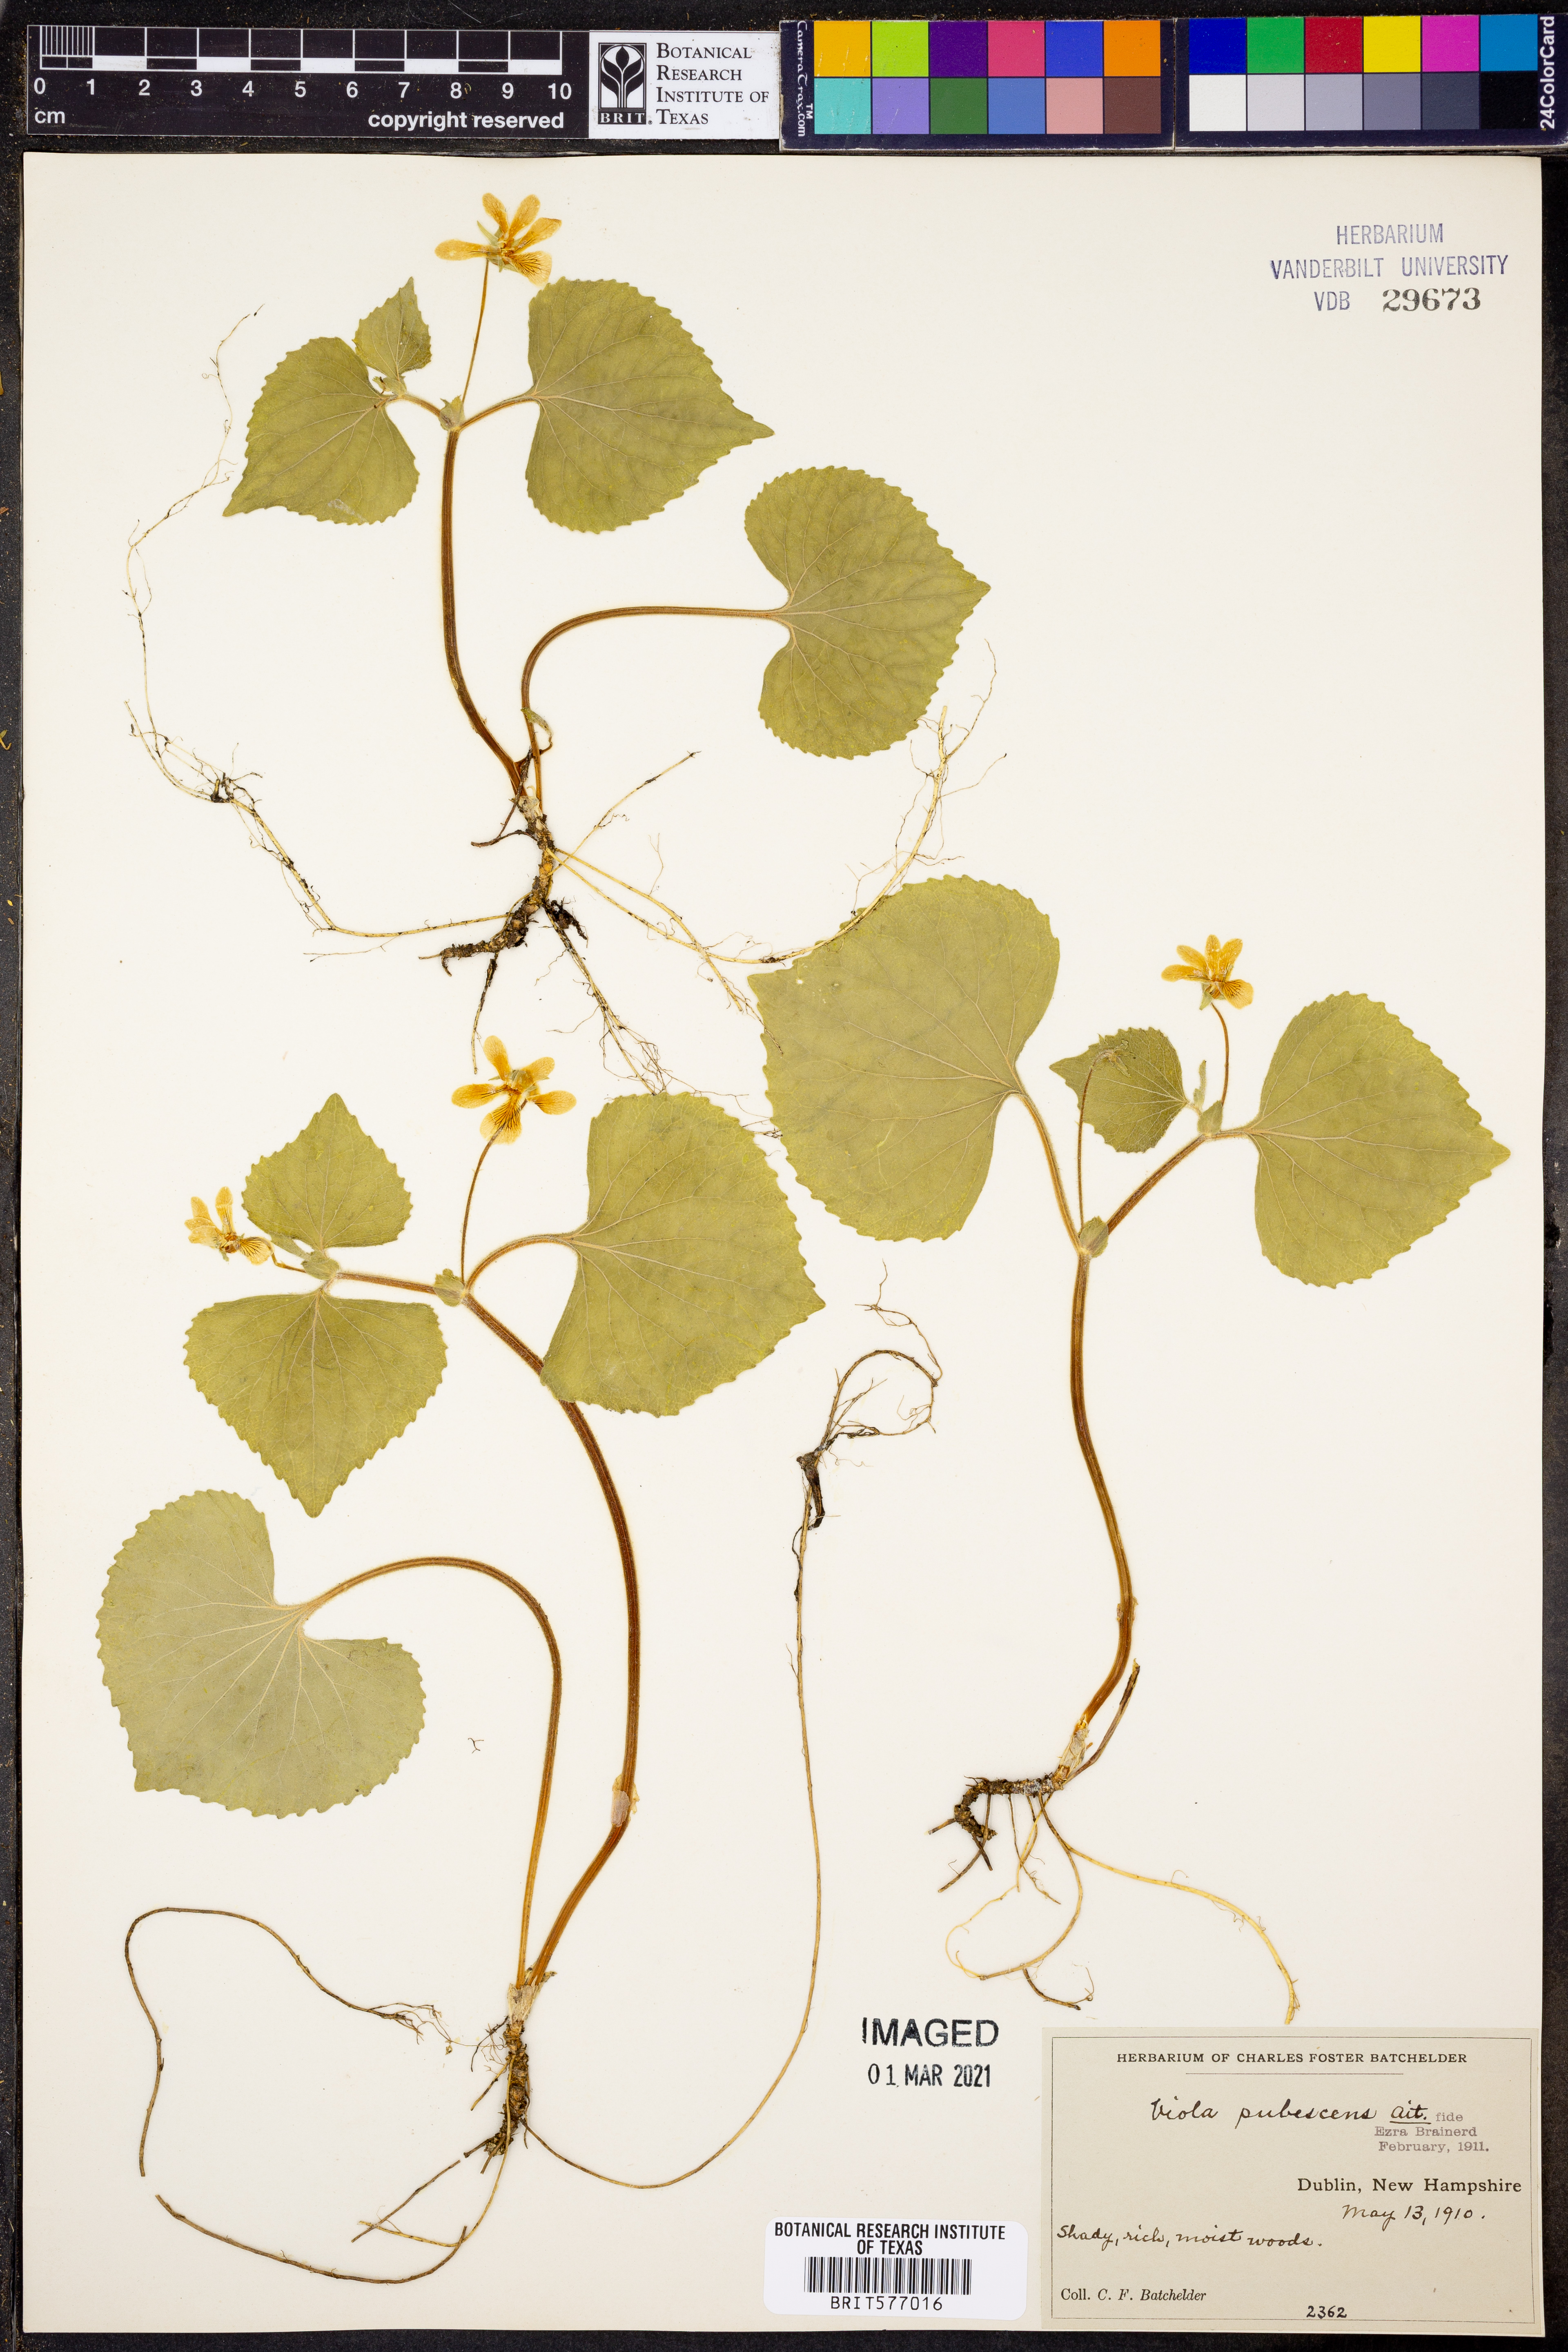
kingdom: Plantae
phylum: Tracheophyta
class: Magnoliopsida
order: Malpighiales
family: Violaceae
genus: Viola
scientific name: Viola pubescens
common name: Yellow forest violet
